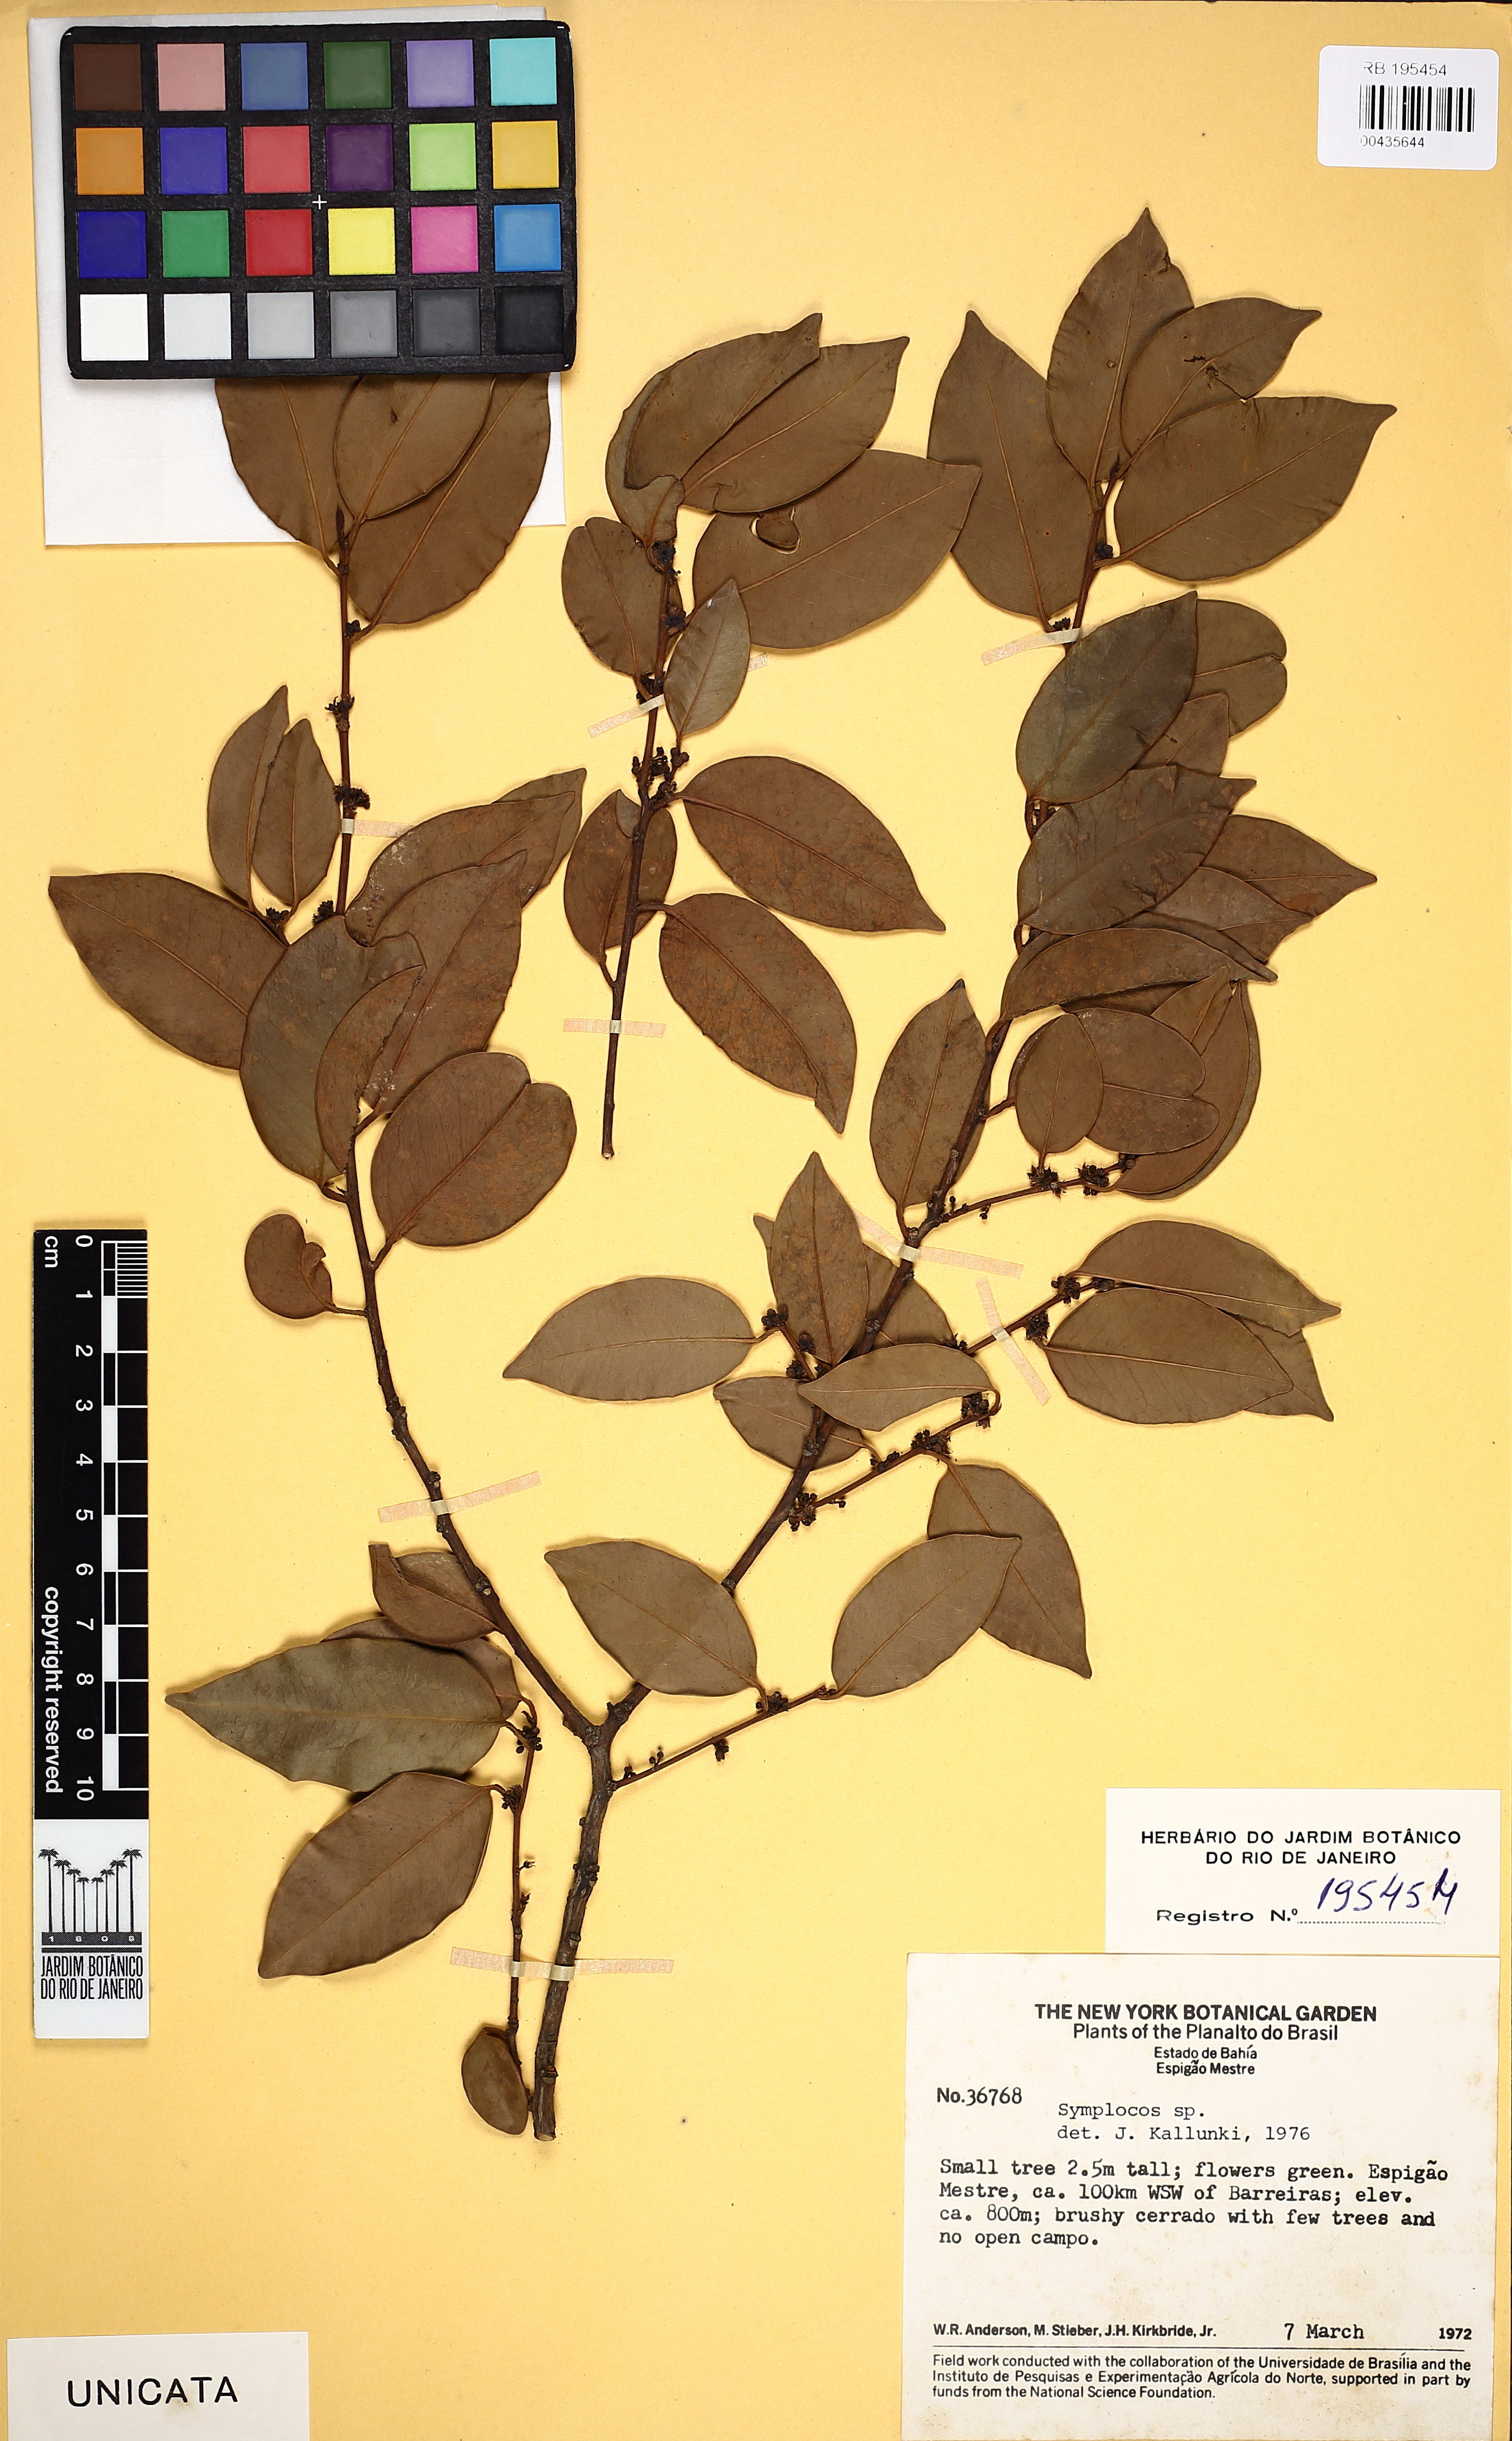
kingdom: Plantae
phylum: Tracheophyta
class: Magnoliopsida
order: Ericales
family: Symplocaceae
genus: Symplocos
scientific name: Symplocos
